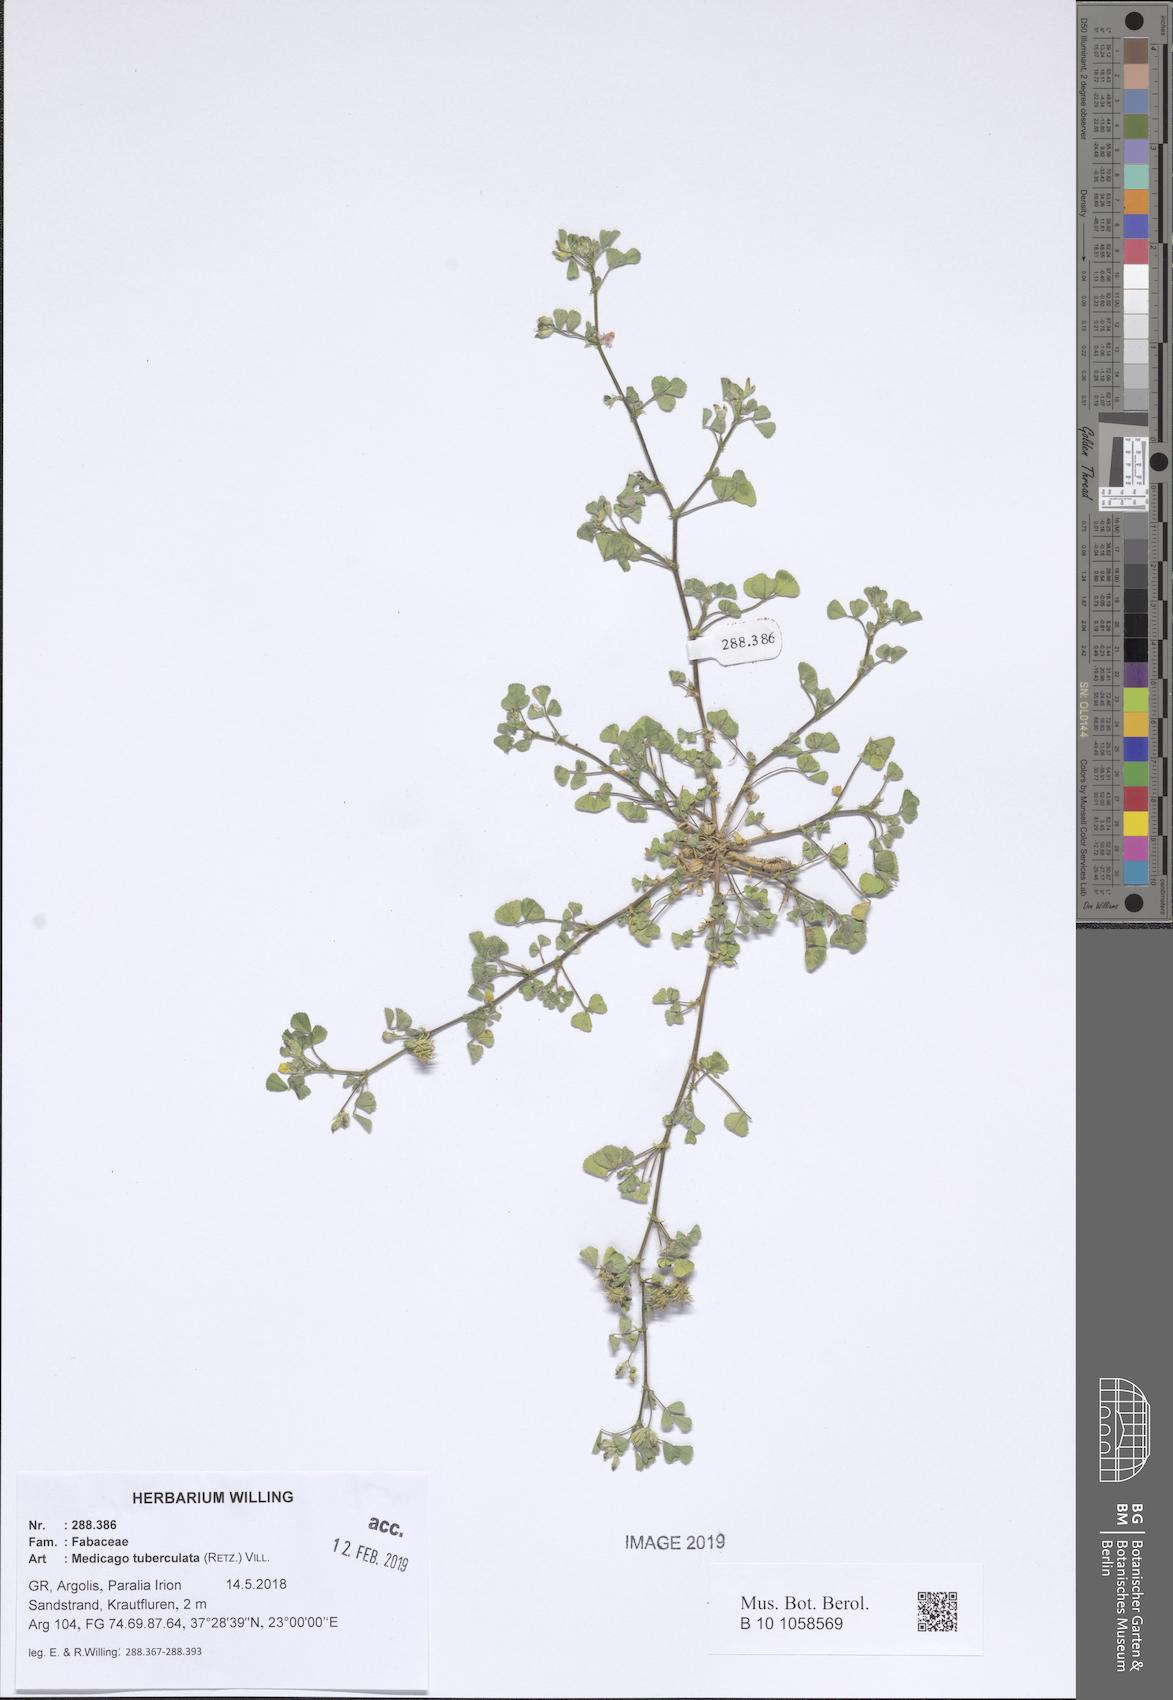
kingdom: Plantae
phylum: Tracheophyta
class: Magnoliopsida
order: Fabales
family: Fabaceae
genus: Medicago
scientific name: Medicago turbinata
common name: Southern medick
